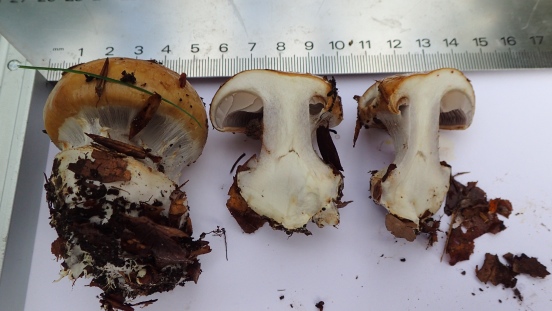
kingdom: Fungi
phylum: Basidiomycota
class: Agaricomycetes
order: Agaricales
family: Cortinariaceae
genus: Cortinarius
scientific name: Cortinarius anserinus
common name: bøge-slørhat
